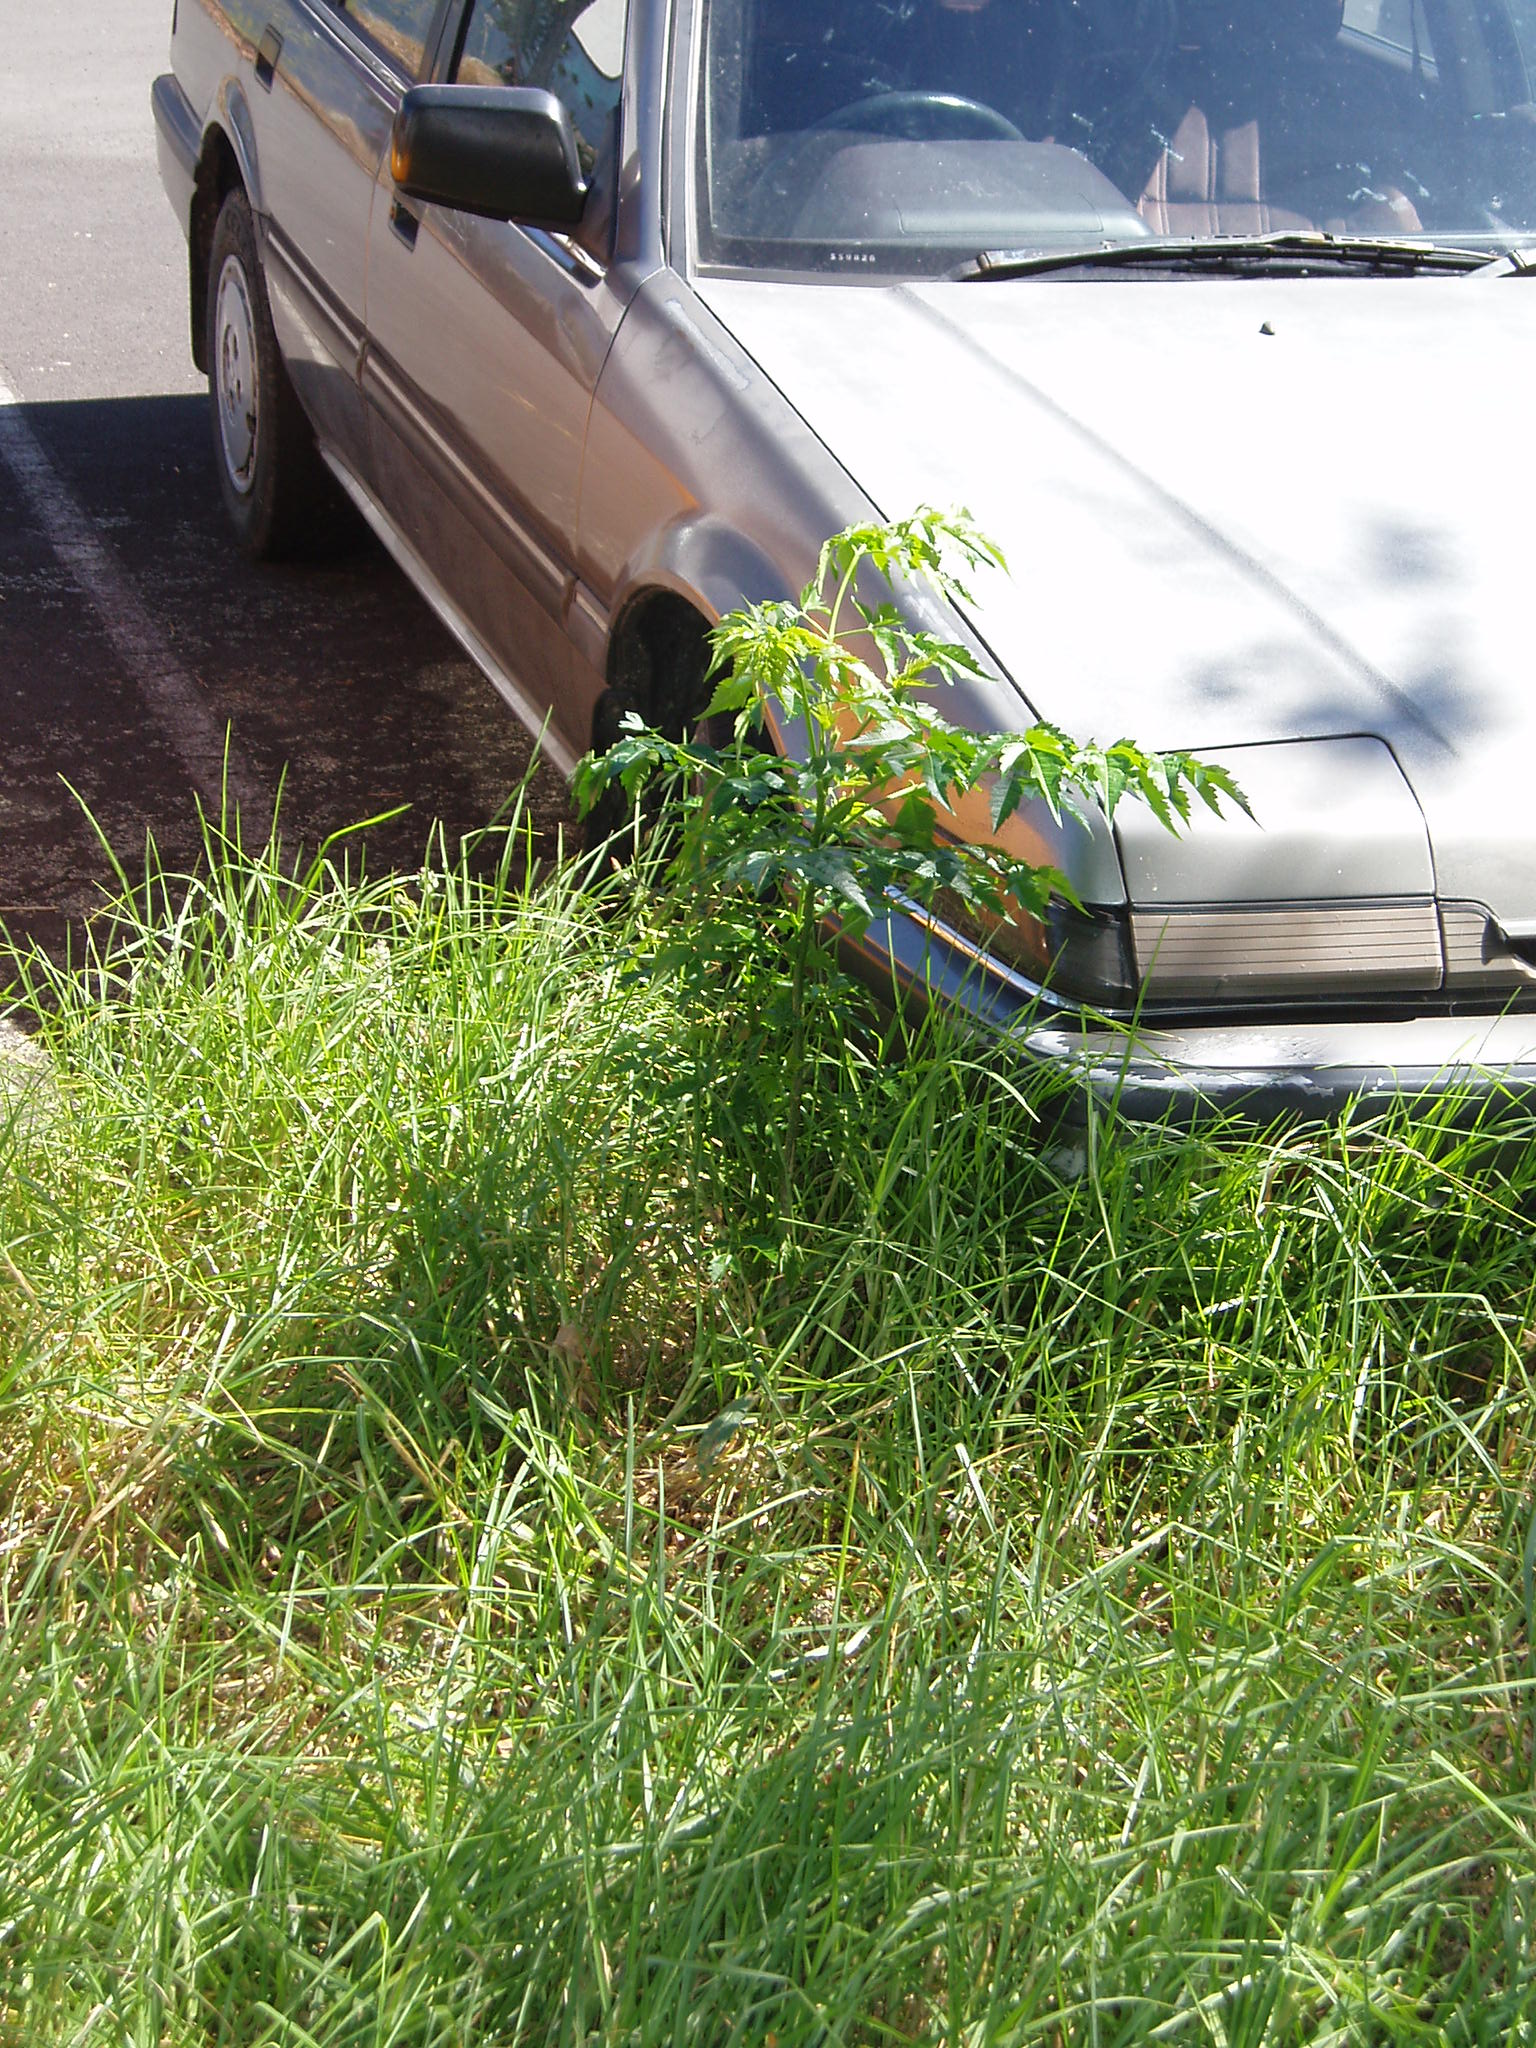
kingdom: Plantae
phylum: Tracheophyta
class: Magnoliopsida
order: Sapindales
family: Meliaceae
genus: Melia
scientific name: Melia azedarach
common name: Chinaberrytree
